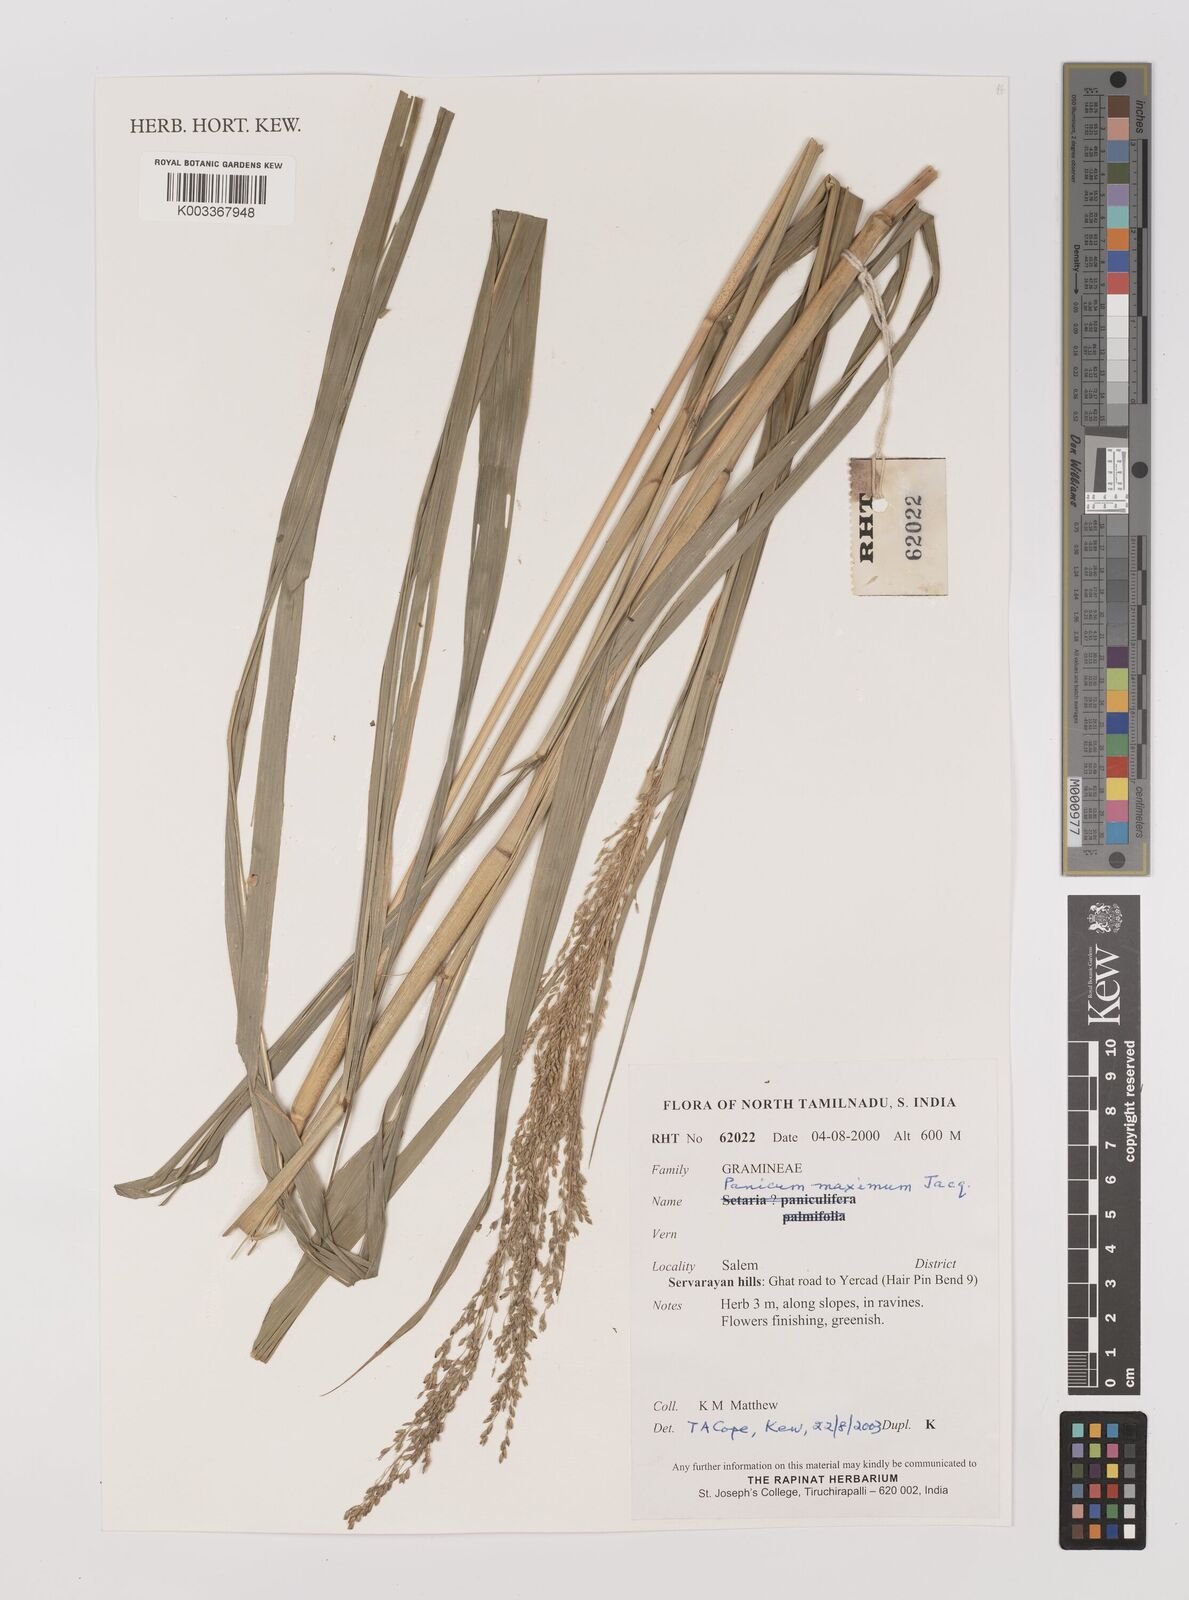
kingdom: Plantae
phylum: Tracheophyta
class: Liliopsida
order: Poales
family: Poaceae
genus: Megathyrsus
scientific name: Megathyrsus maximus
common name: Guineagrass
